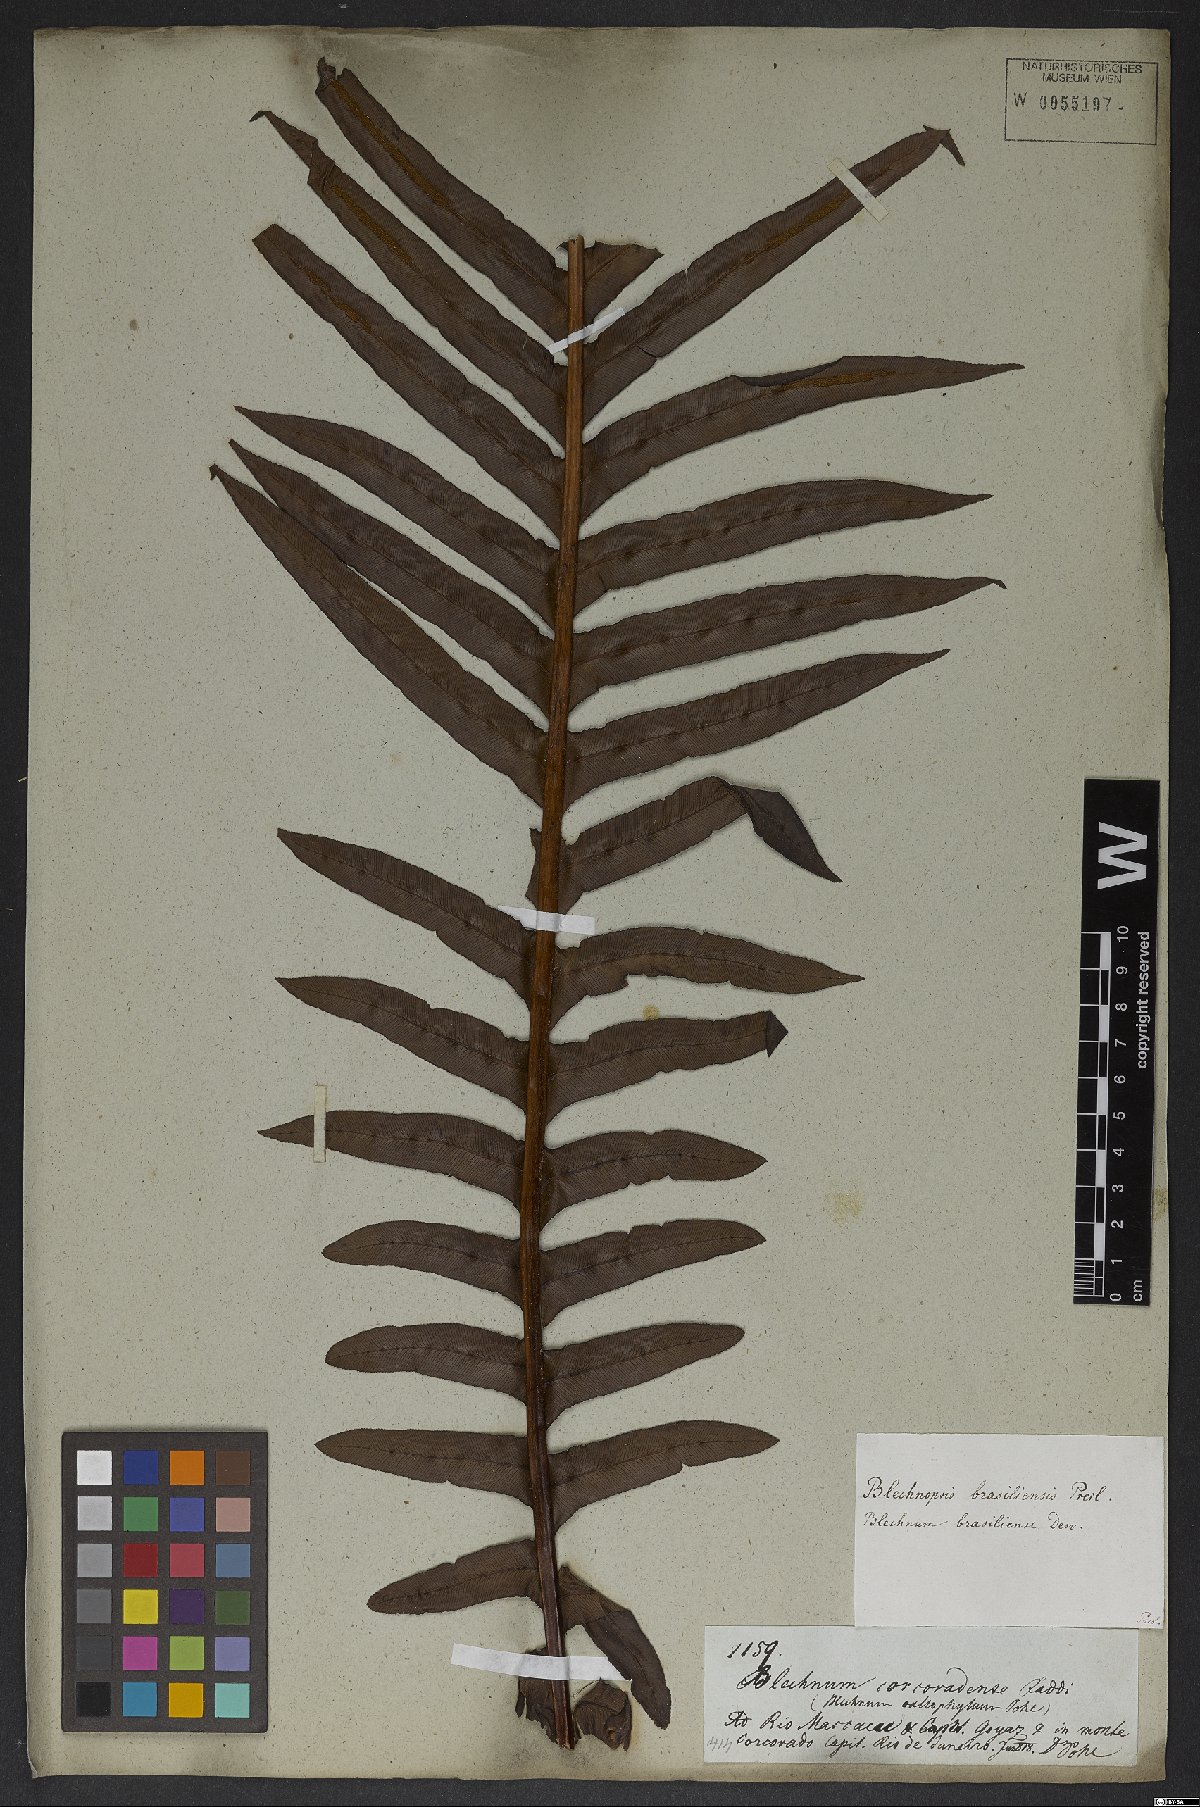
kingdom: Plantae
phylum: Tracheophyta
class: Polypodiopsida
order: Polypodiales
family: Blechnaceae
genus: Neoblechnum
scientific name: Neoblechnum brasiliense
